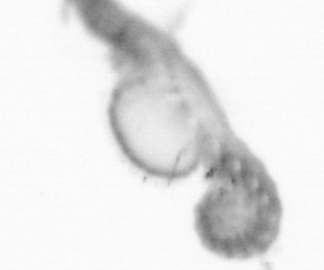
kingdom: Animalia
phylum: Annelida
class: Polychaeta
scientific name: Polychaeta
